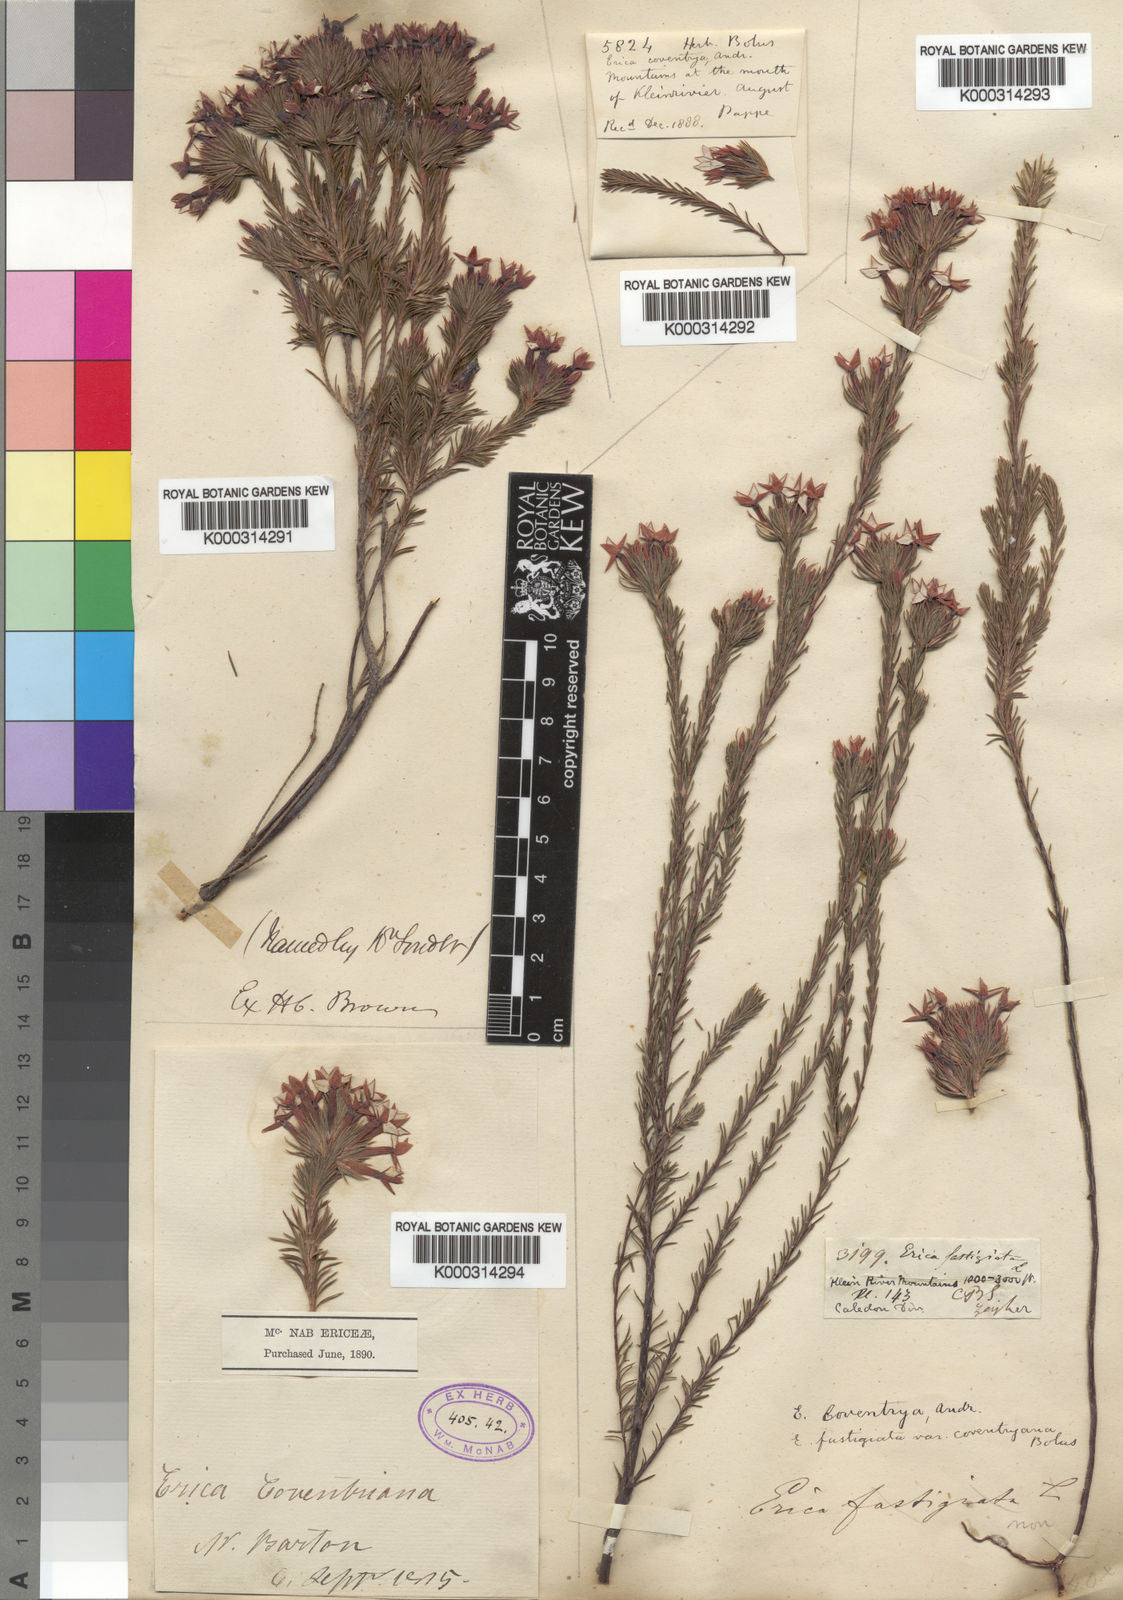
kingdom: Plantae
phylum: Tracheophyta
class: Magnoliopsida
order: Ericales
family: Ericaceae
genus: Erica
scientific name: Erica fastigiata
